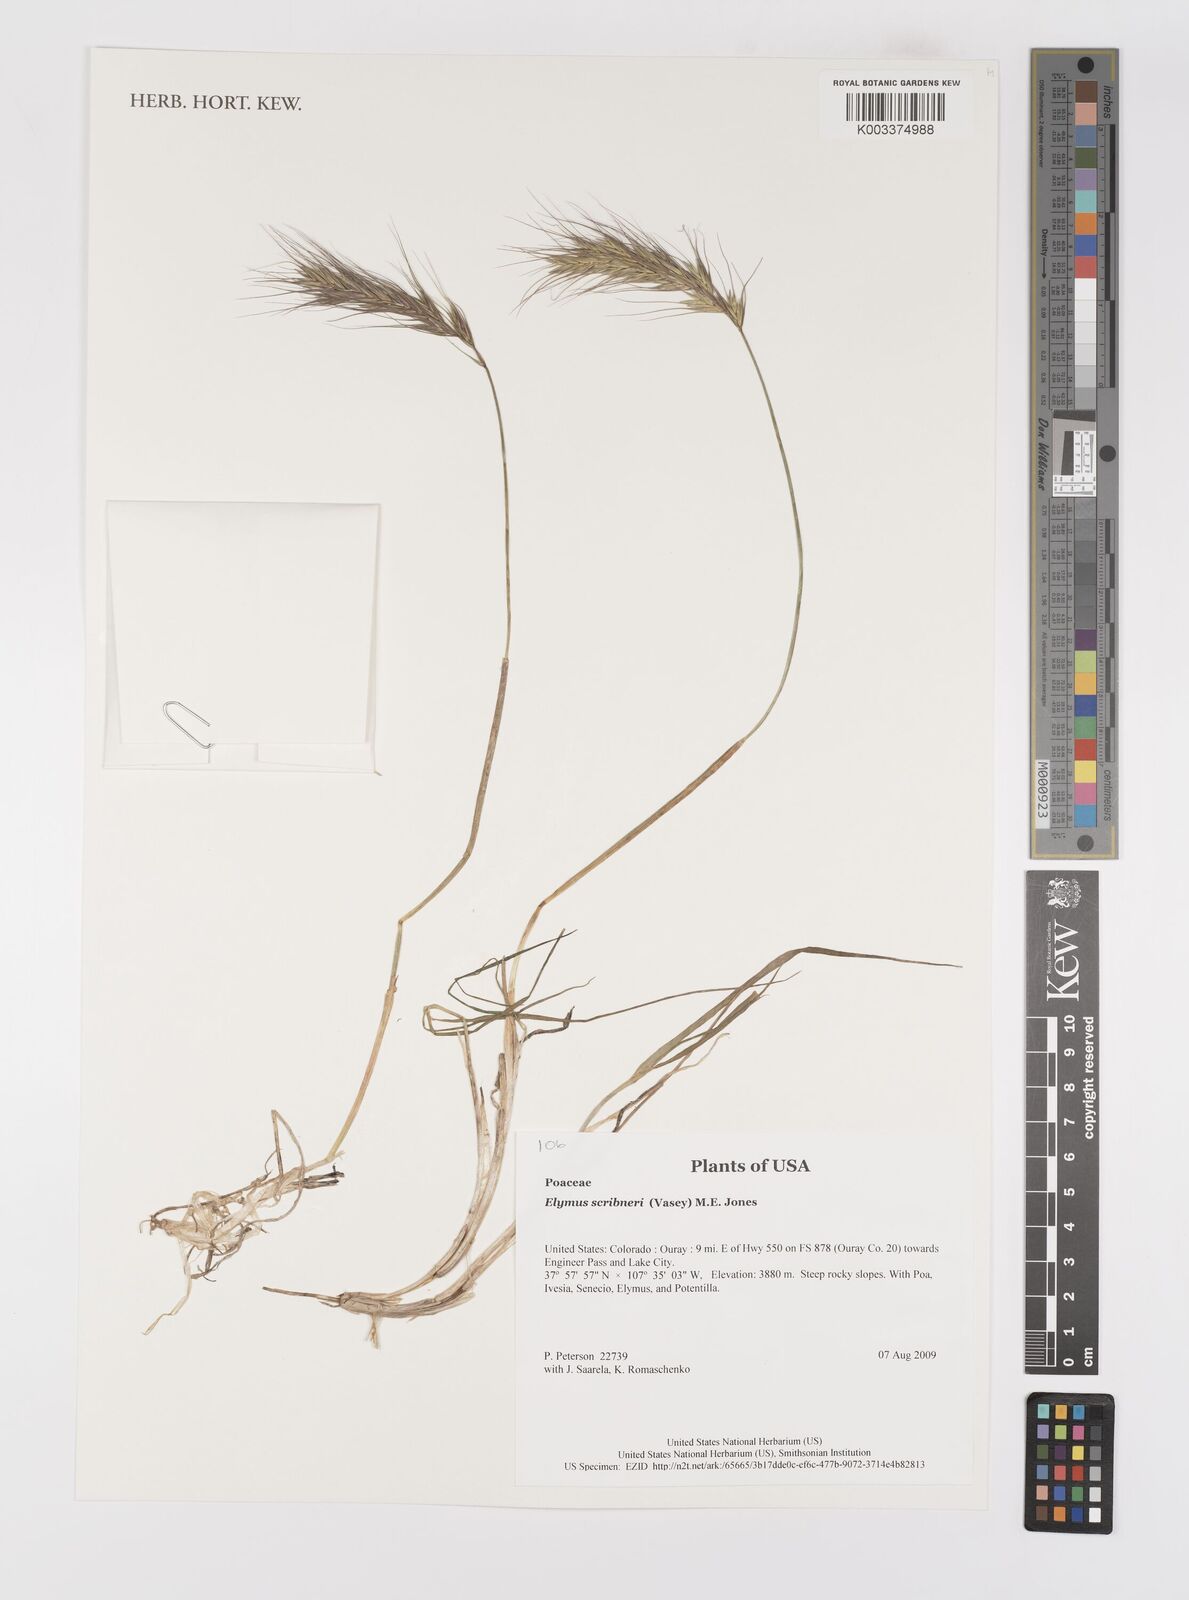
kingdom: Plantae
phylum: Tracheophyta
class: Liliopsida
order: Poales
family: Poaceae
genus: Elymus
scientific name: Elymus scribneri
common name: Scribner's wheatgrass
